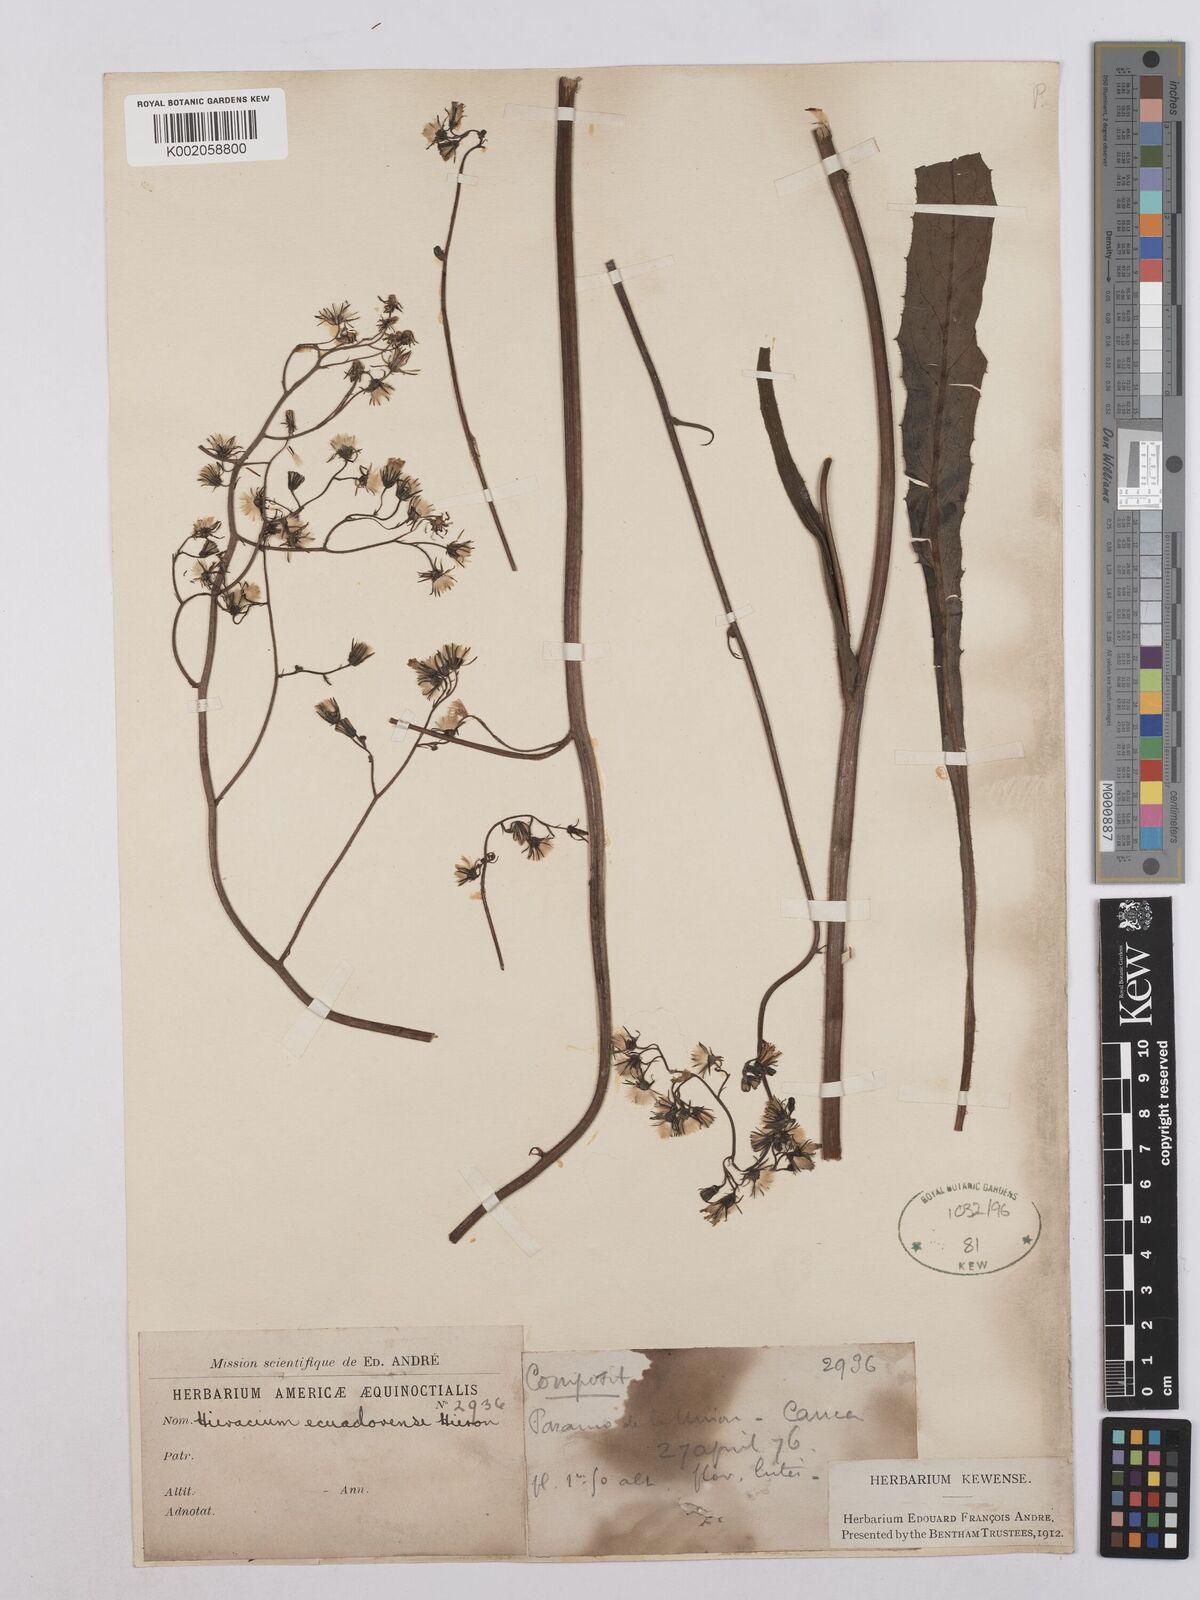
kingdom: Plantae
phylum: Tracheophyta
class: Magnoliopsida
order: Asterales
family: Asteraceae
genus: Hieracium
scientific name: Hieracium ecuadorense
